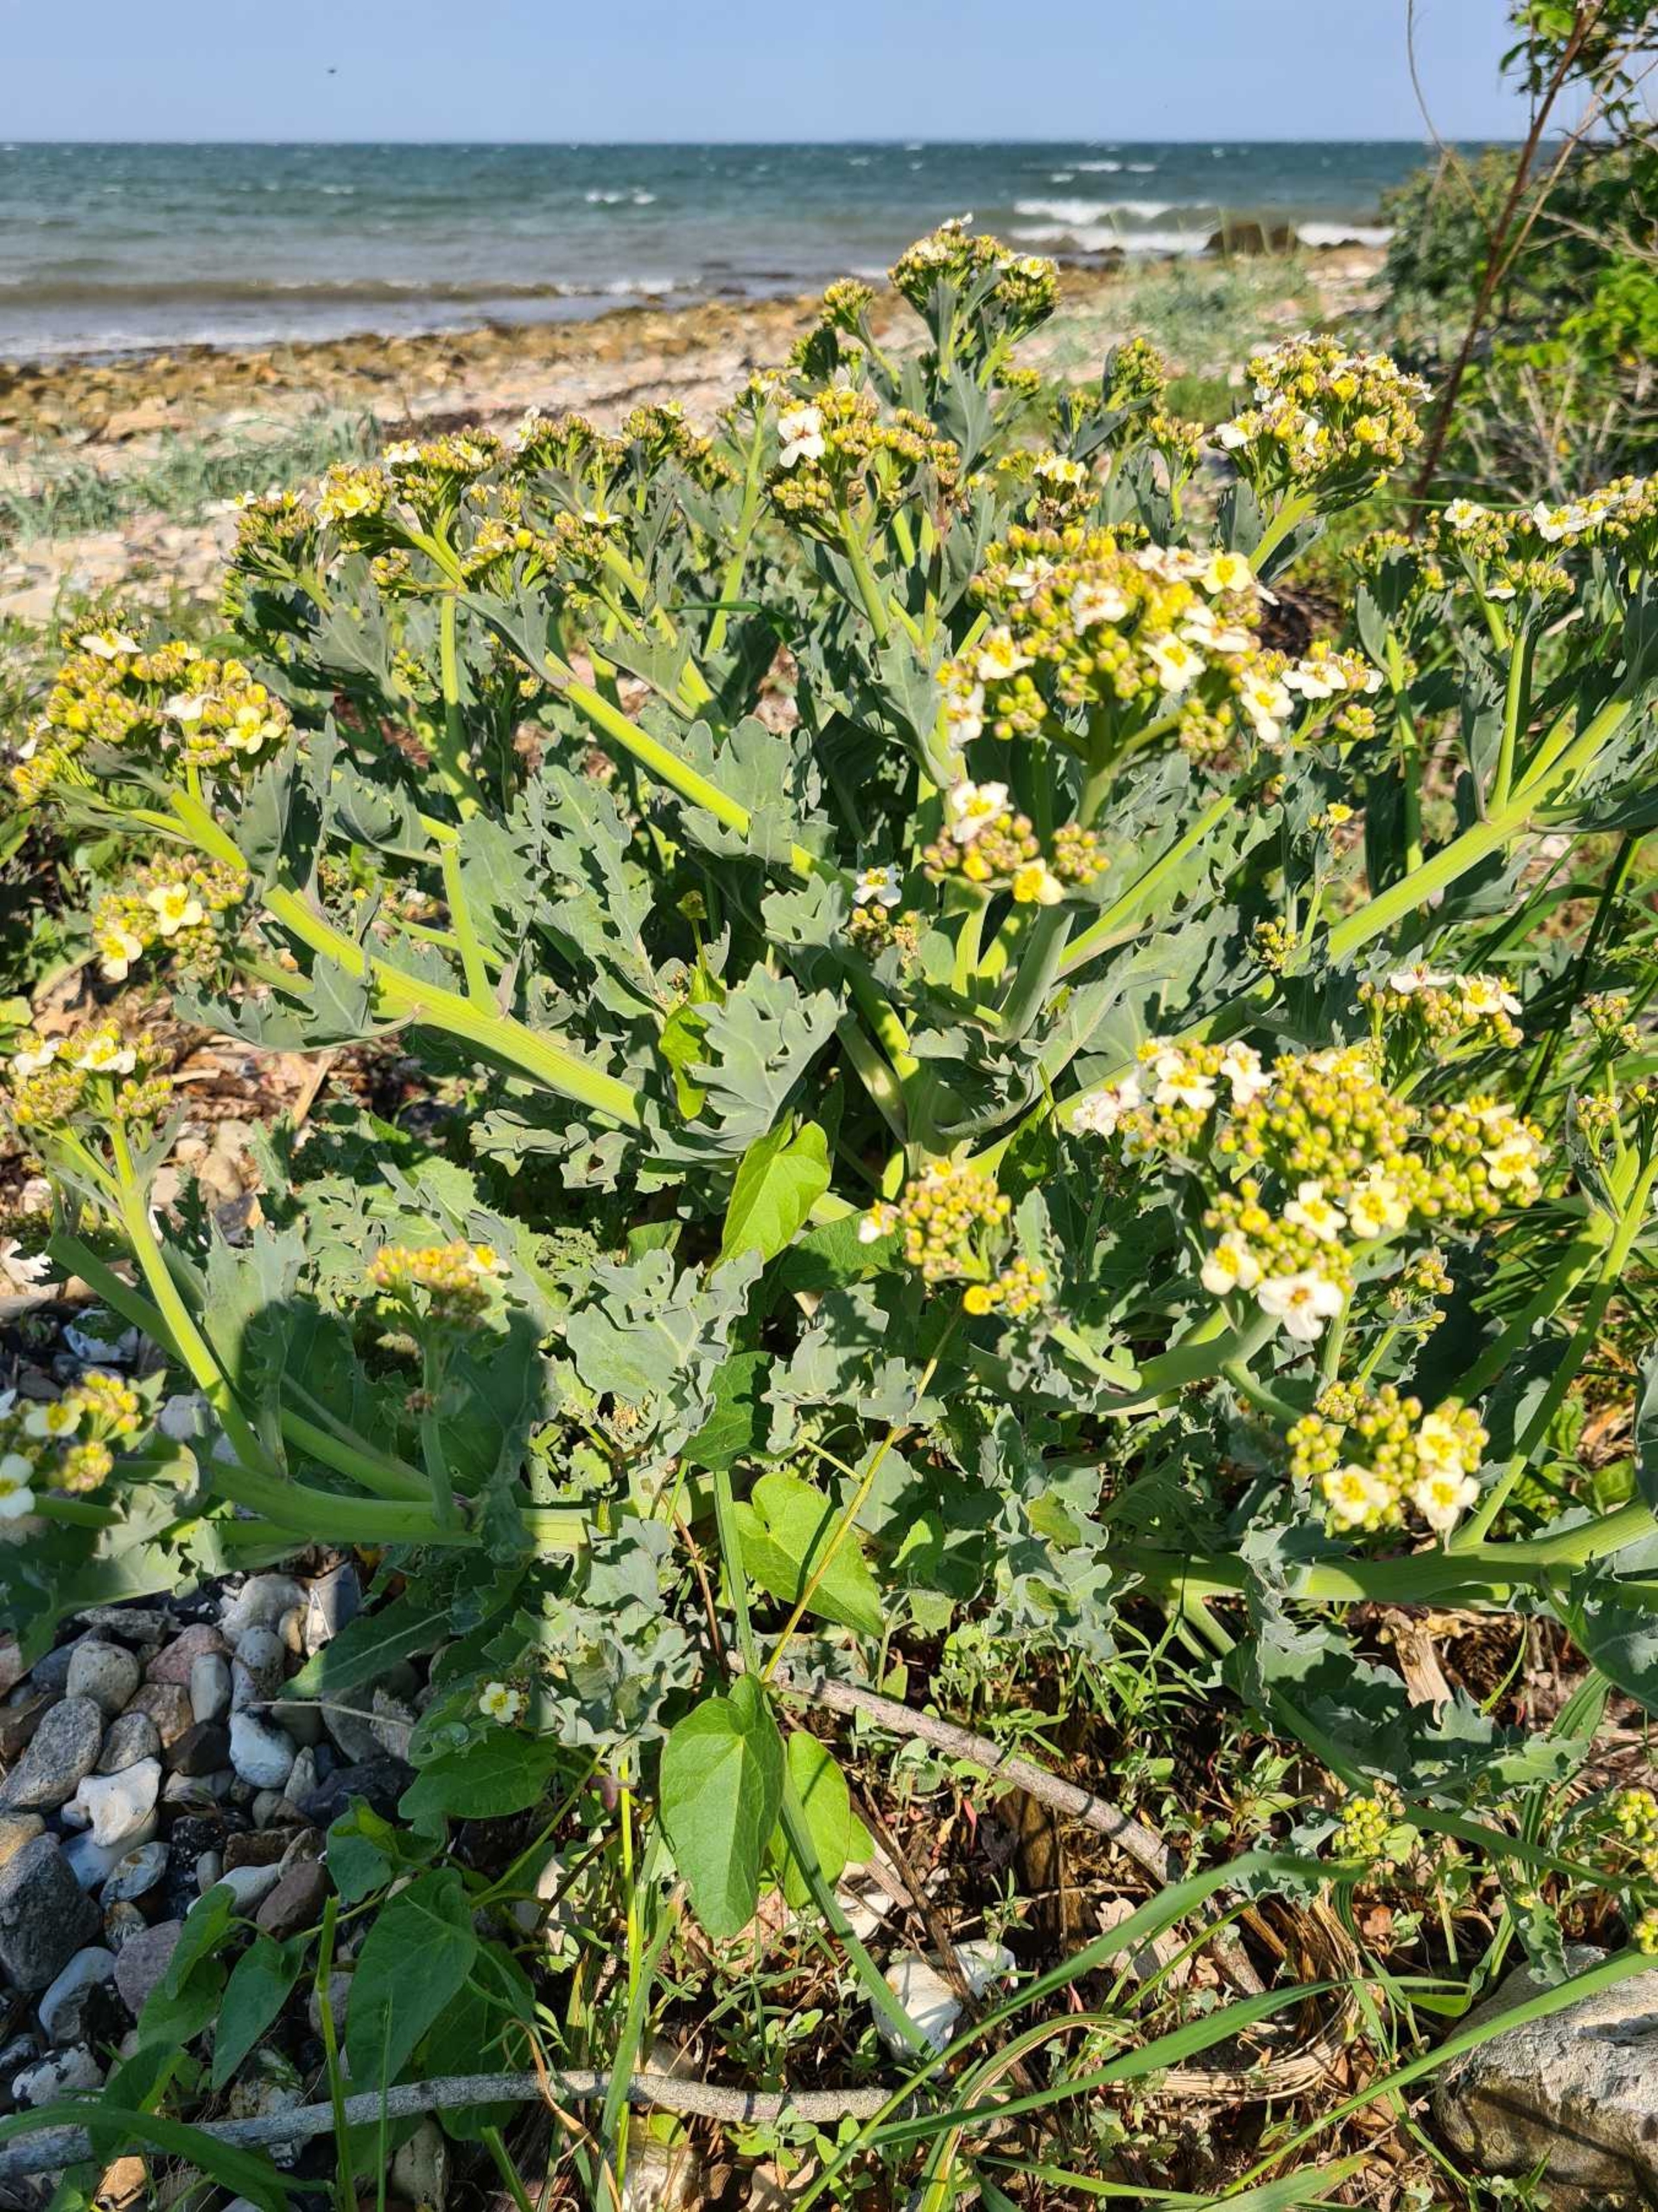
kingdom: Plantae
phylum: Tracheophyta
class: Magnoliopsida
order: Brassicales
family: Brassicaceae
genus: Crambe
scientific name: Crambe maritima
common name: Strandkål
